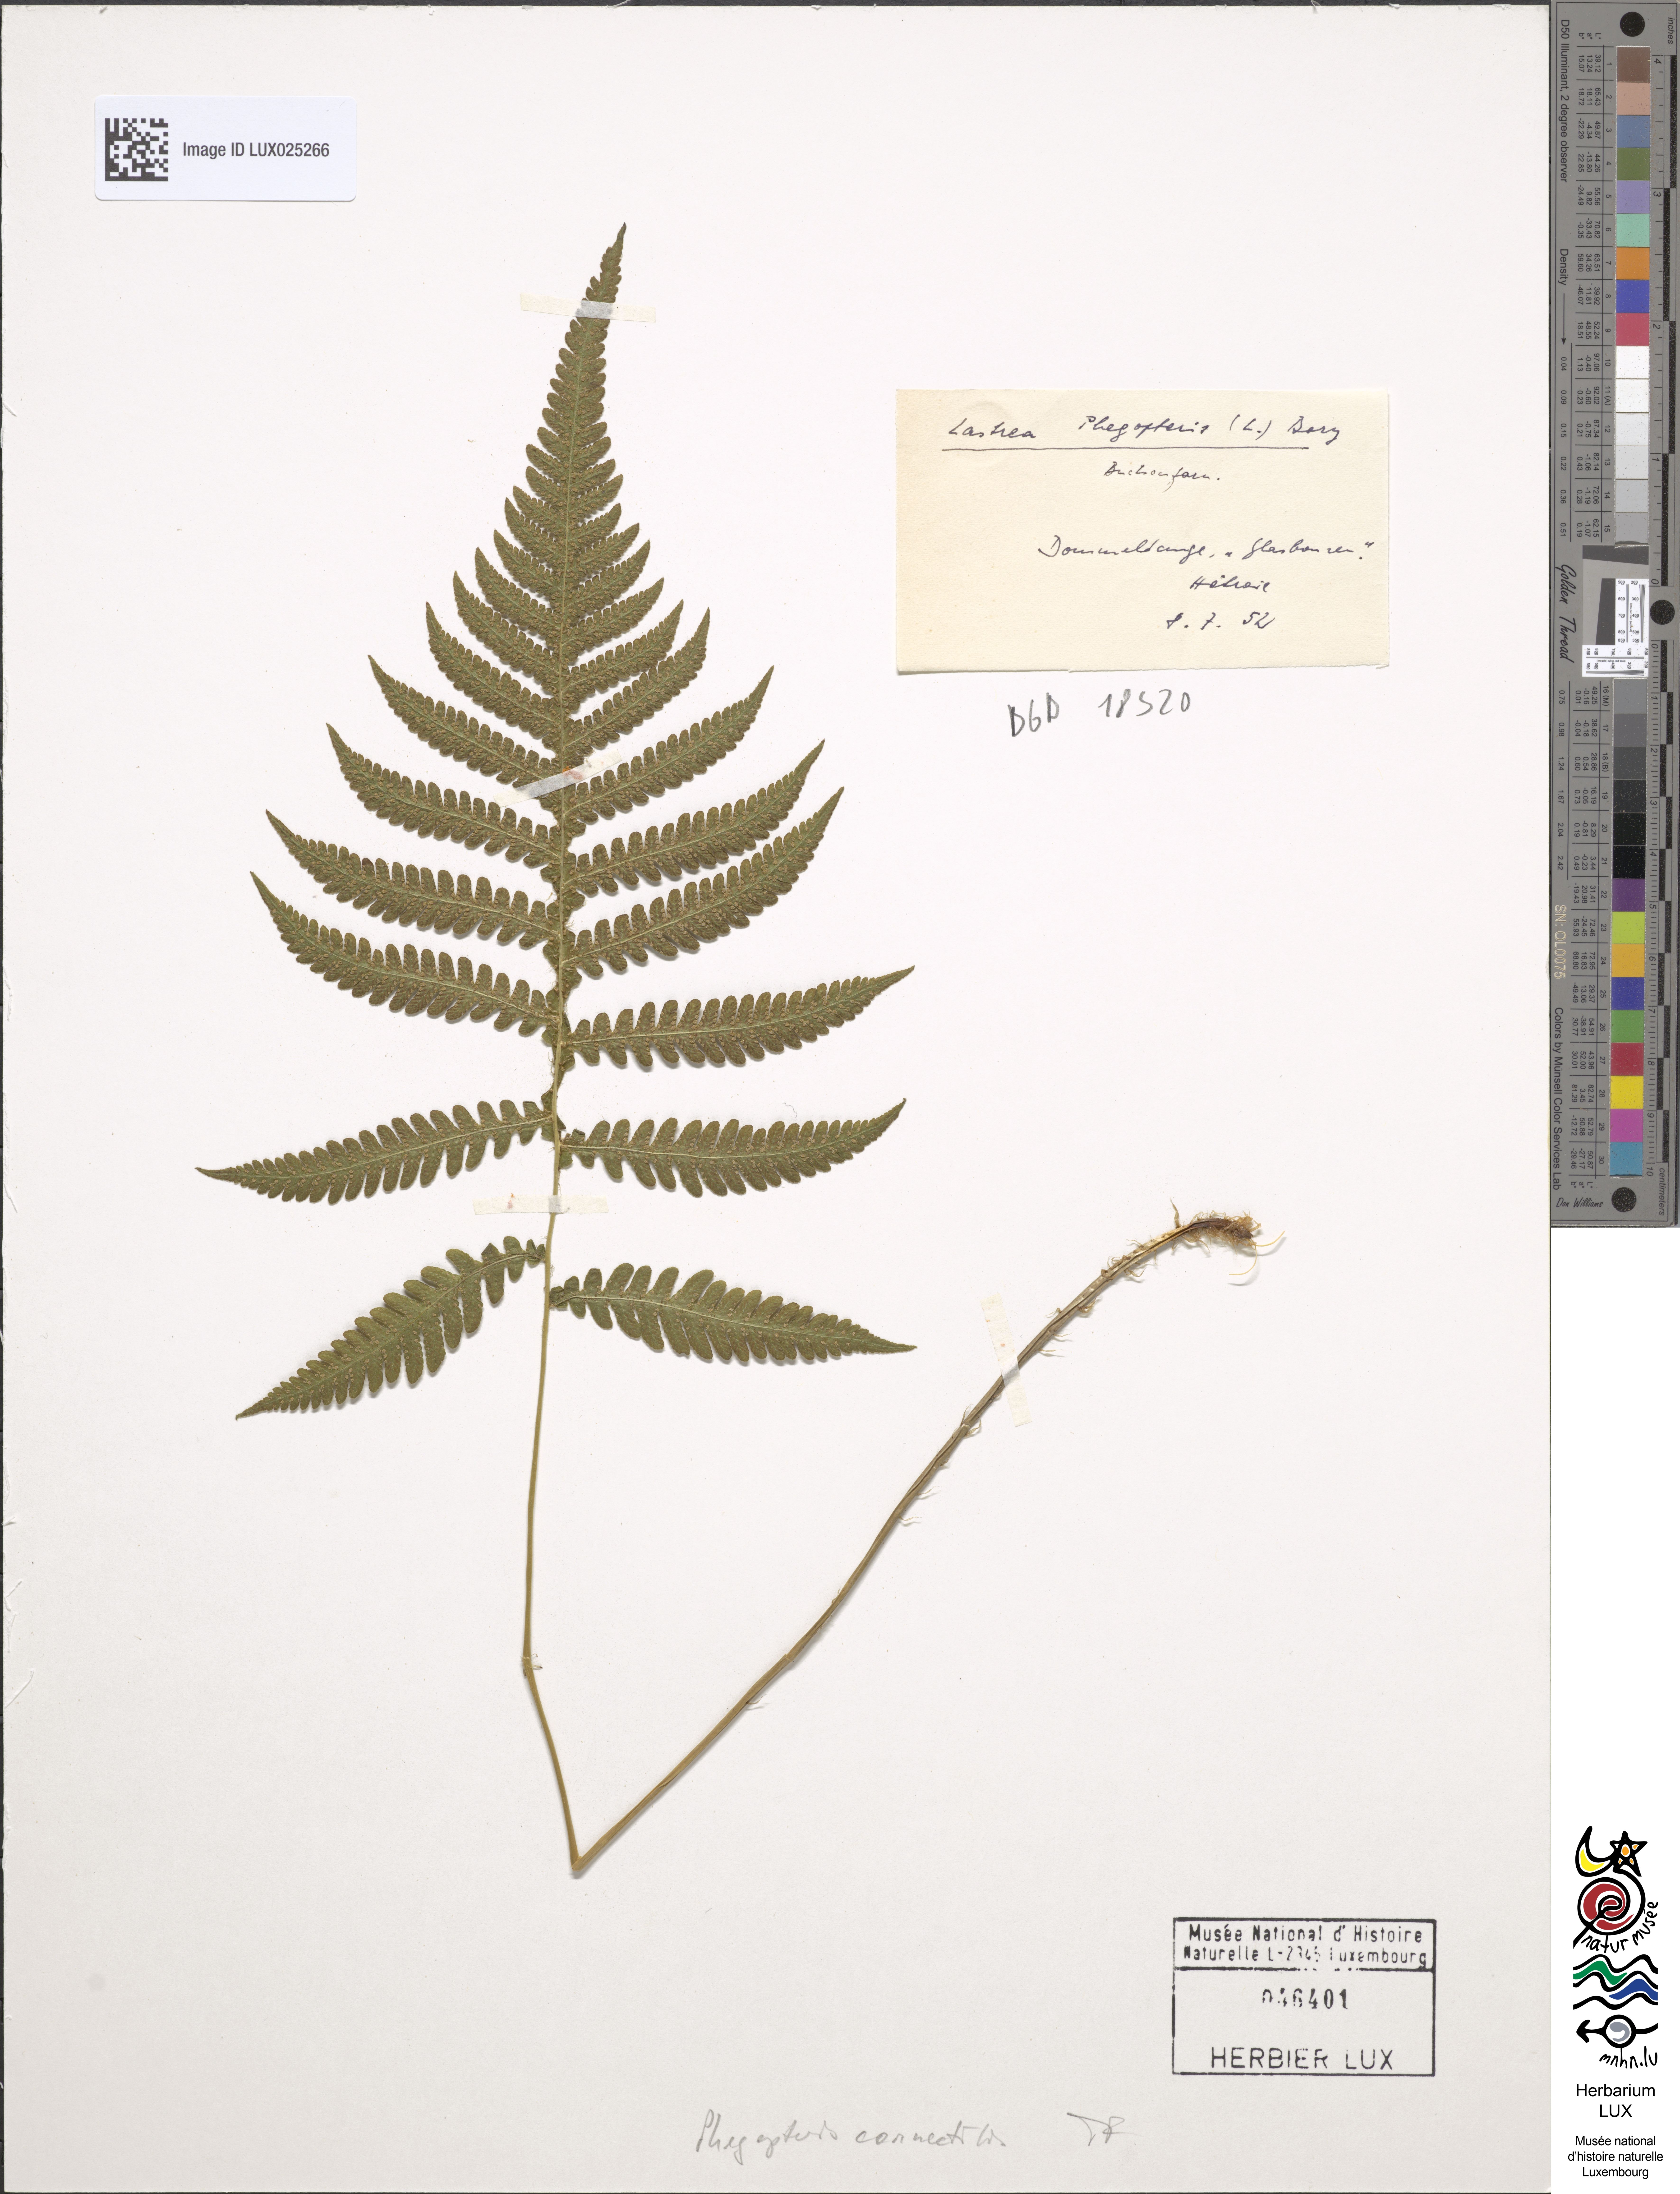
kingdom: Plantae
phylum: Tracheophyta
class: Polypodiopsida
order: Polypodiales
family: Thelypteridaceae
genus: Phegopteris
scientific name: Phegopteris connectilis
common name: Beech fern
